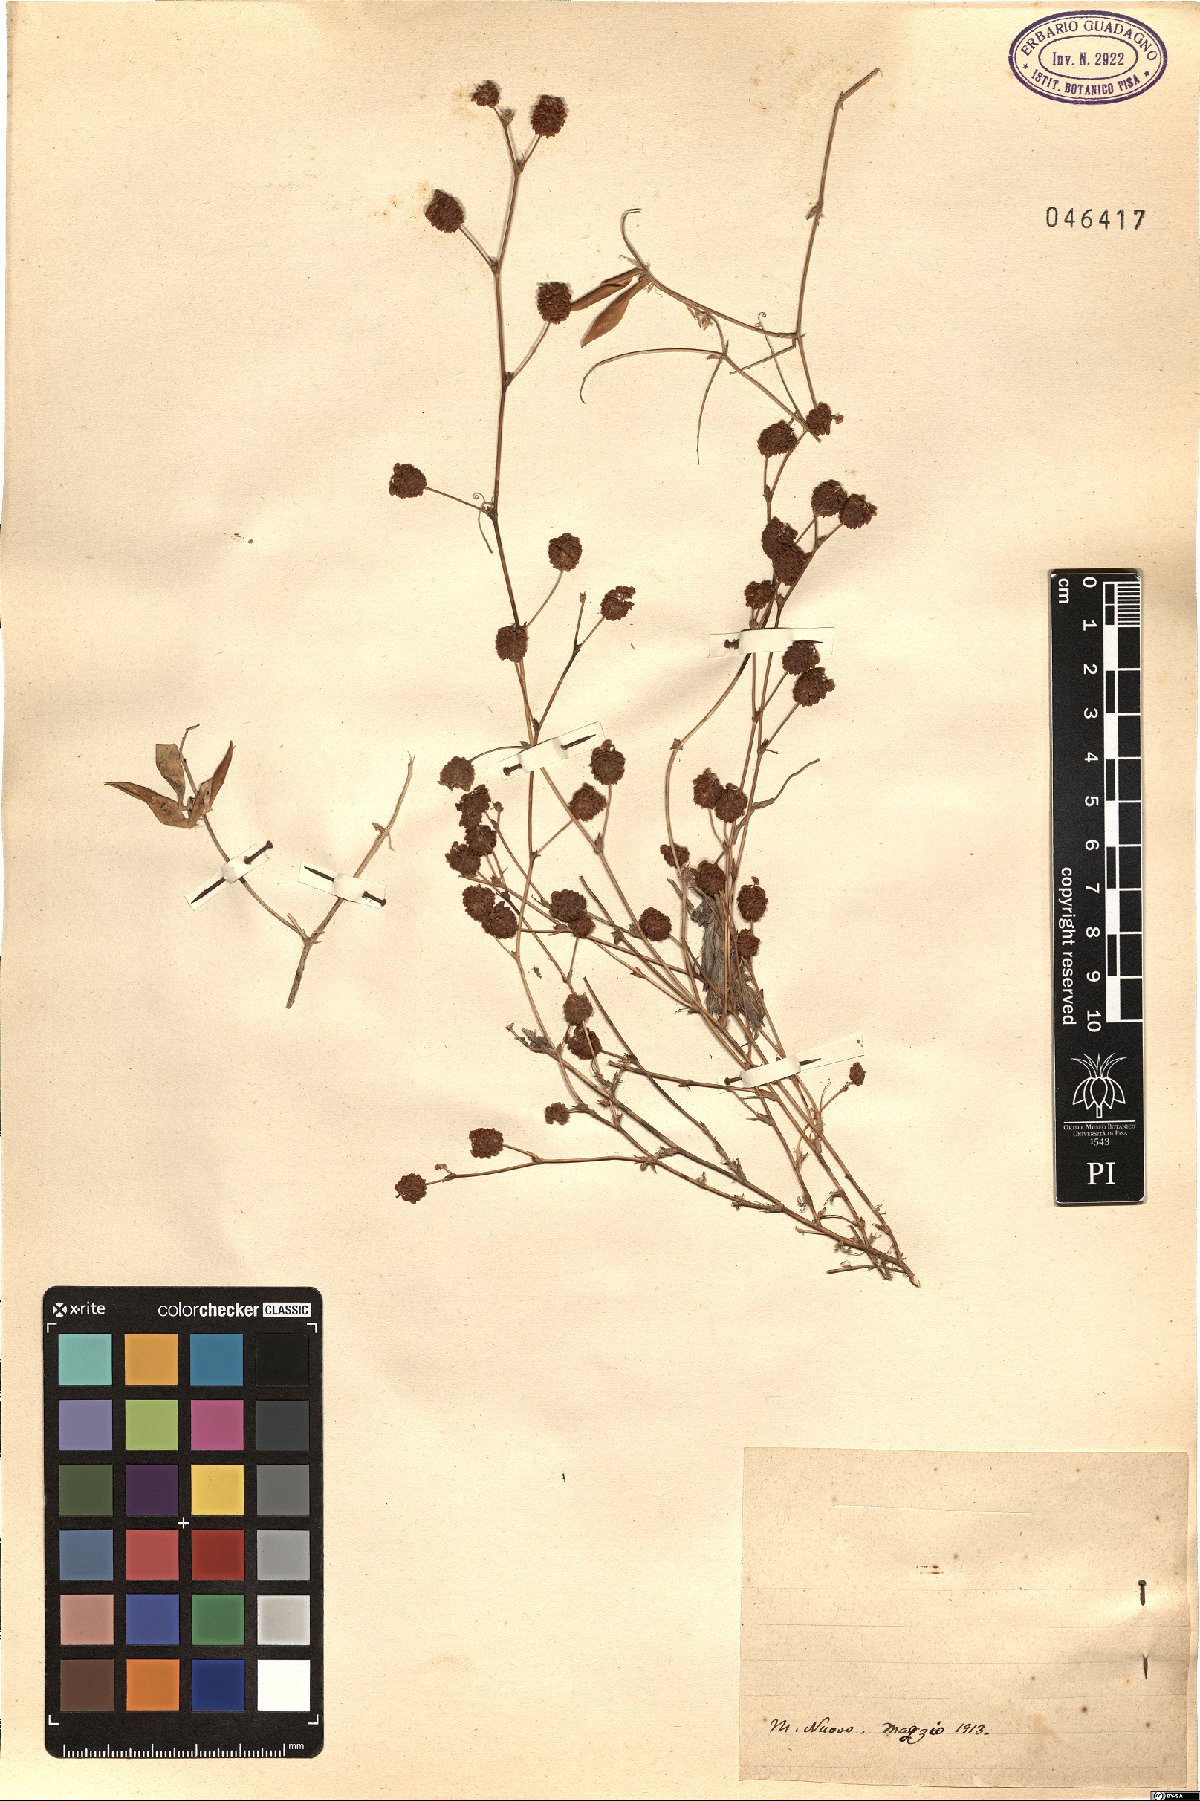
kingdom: Plantae
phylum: Tracheophyta
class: Magnoliopsida
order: Fabales
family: Fabaceae
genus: Trifolium
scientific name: Trifolium
